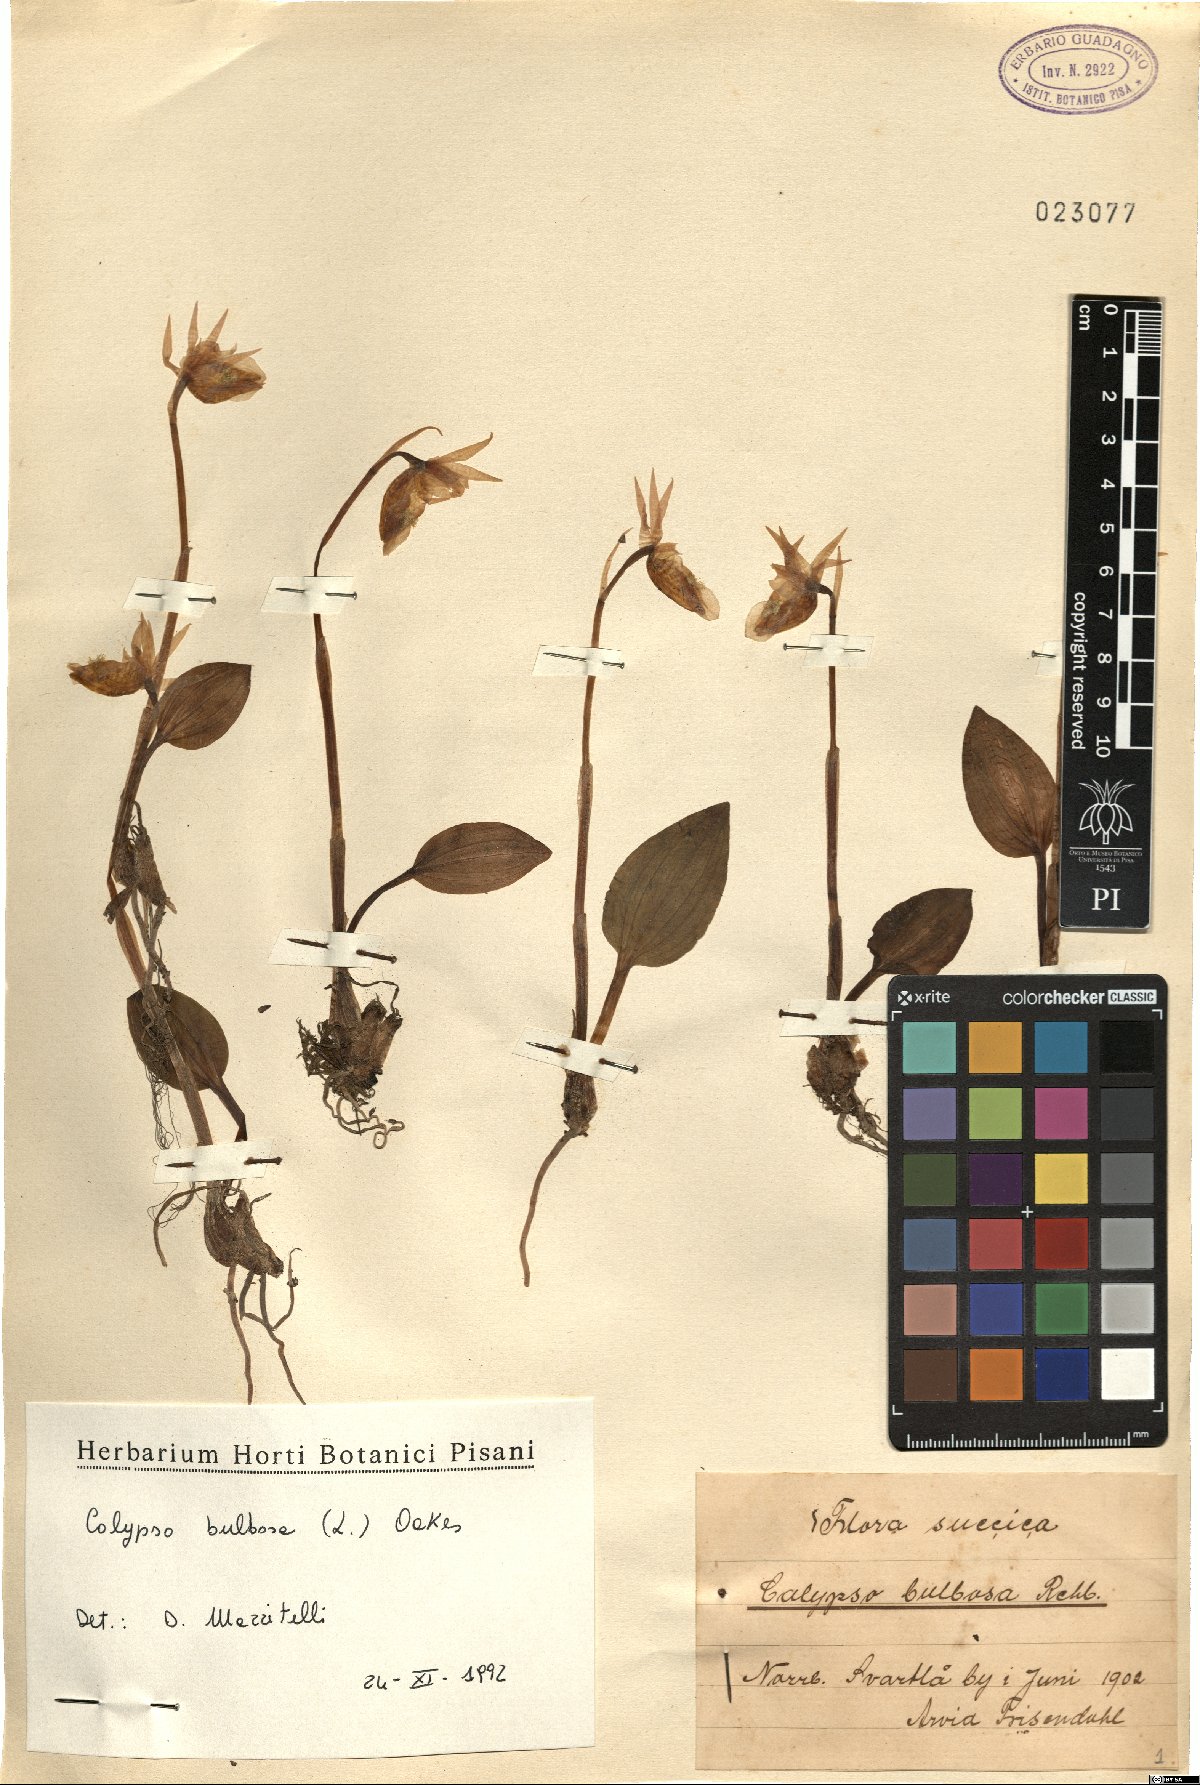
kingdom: Plantae
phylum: Tracheophyta
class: Liliopsida
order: Asparagales
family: Orchidaceae
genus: Calypso
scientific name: Calypso bulbosa
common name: Calypso
